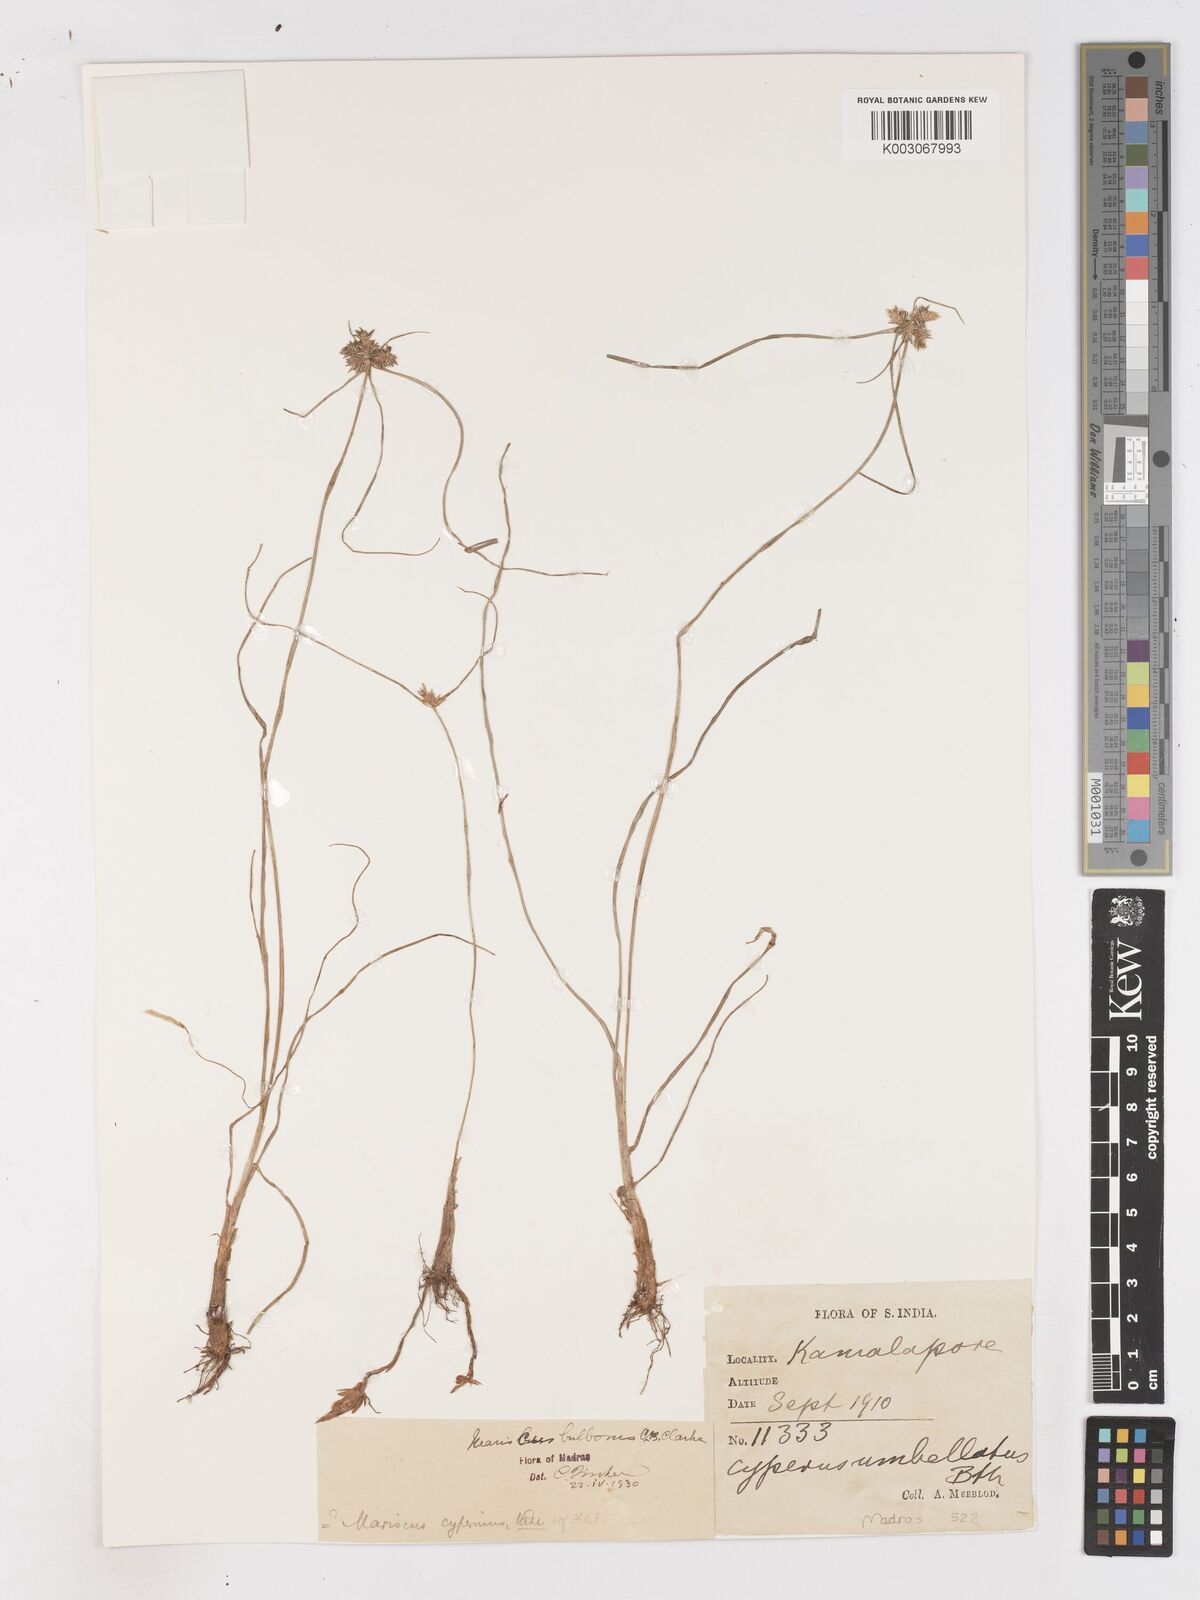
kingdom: Plantae
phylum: Tracheophyta
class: Liliopsida
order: Poales
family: Cyperaceae
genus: Cyperus
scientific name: Cyperus clarkei
